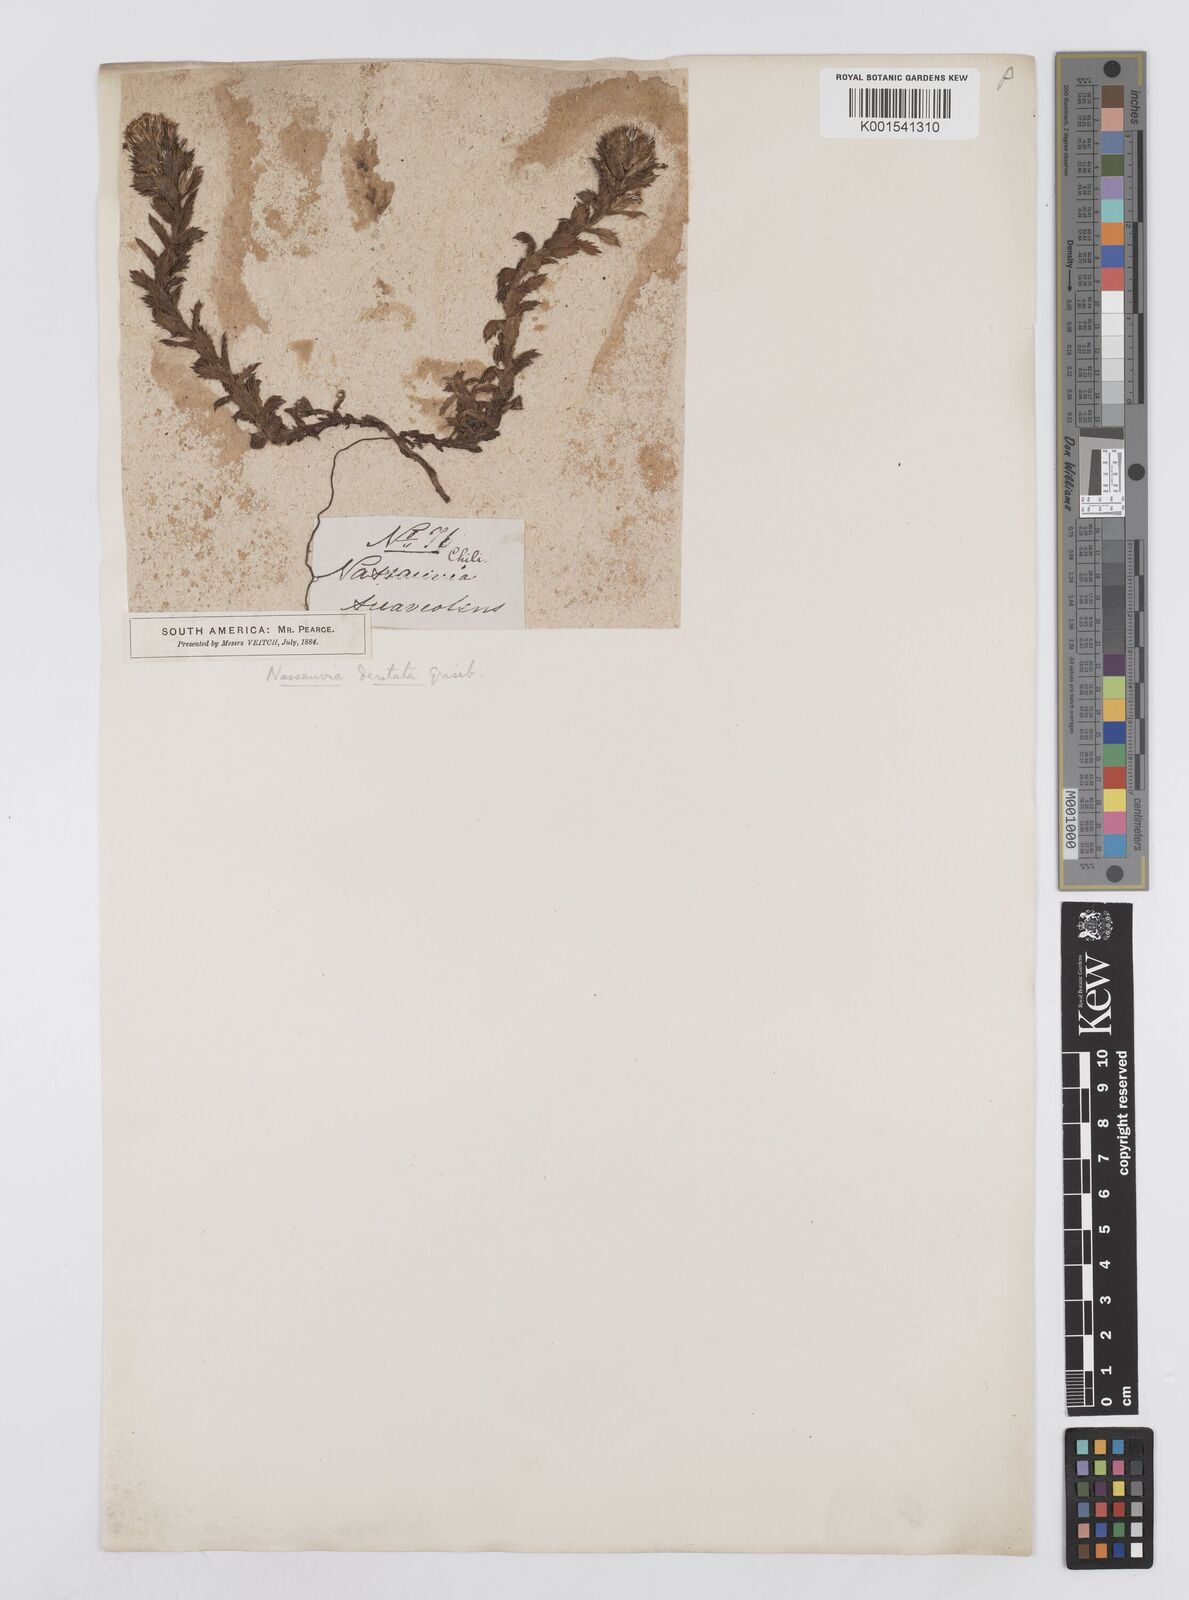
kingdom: Plantae
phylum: Tracheophyta
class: Magnoliopsida
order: Asterales
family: Asteraceae
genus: Nassauvia
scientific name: Nassauvia dentata
